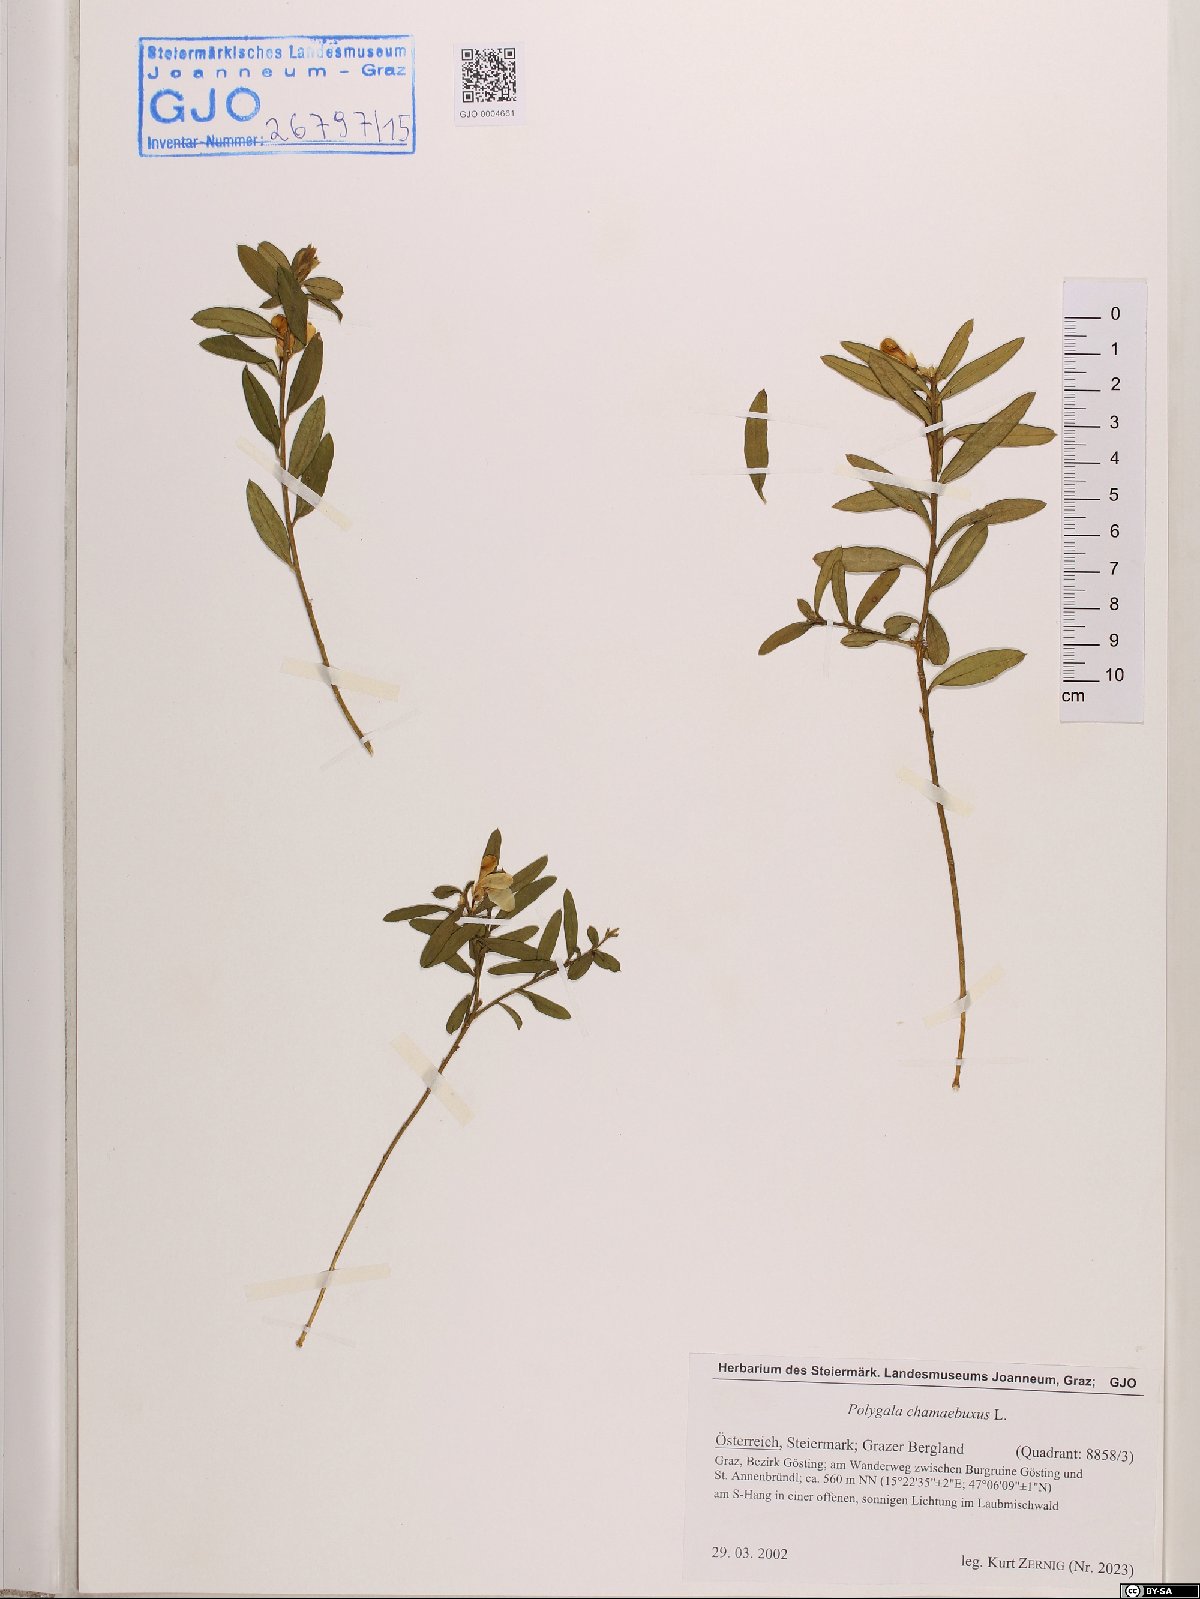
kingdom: Plantae
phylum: Tracheophyta
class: Magnoliopsida
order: Fabales
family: Polygalaceae
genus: Polygaloides
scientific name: Polygaloides chamaebuxus
